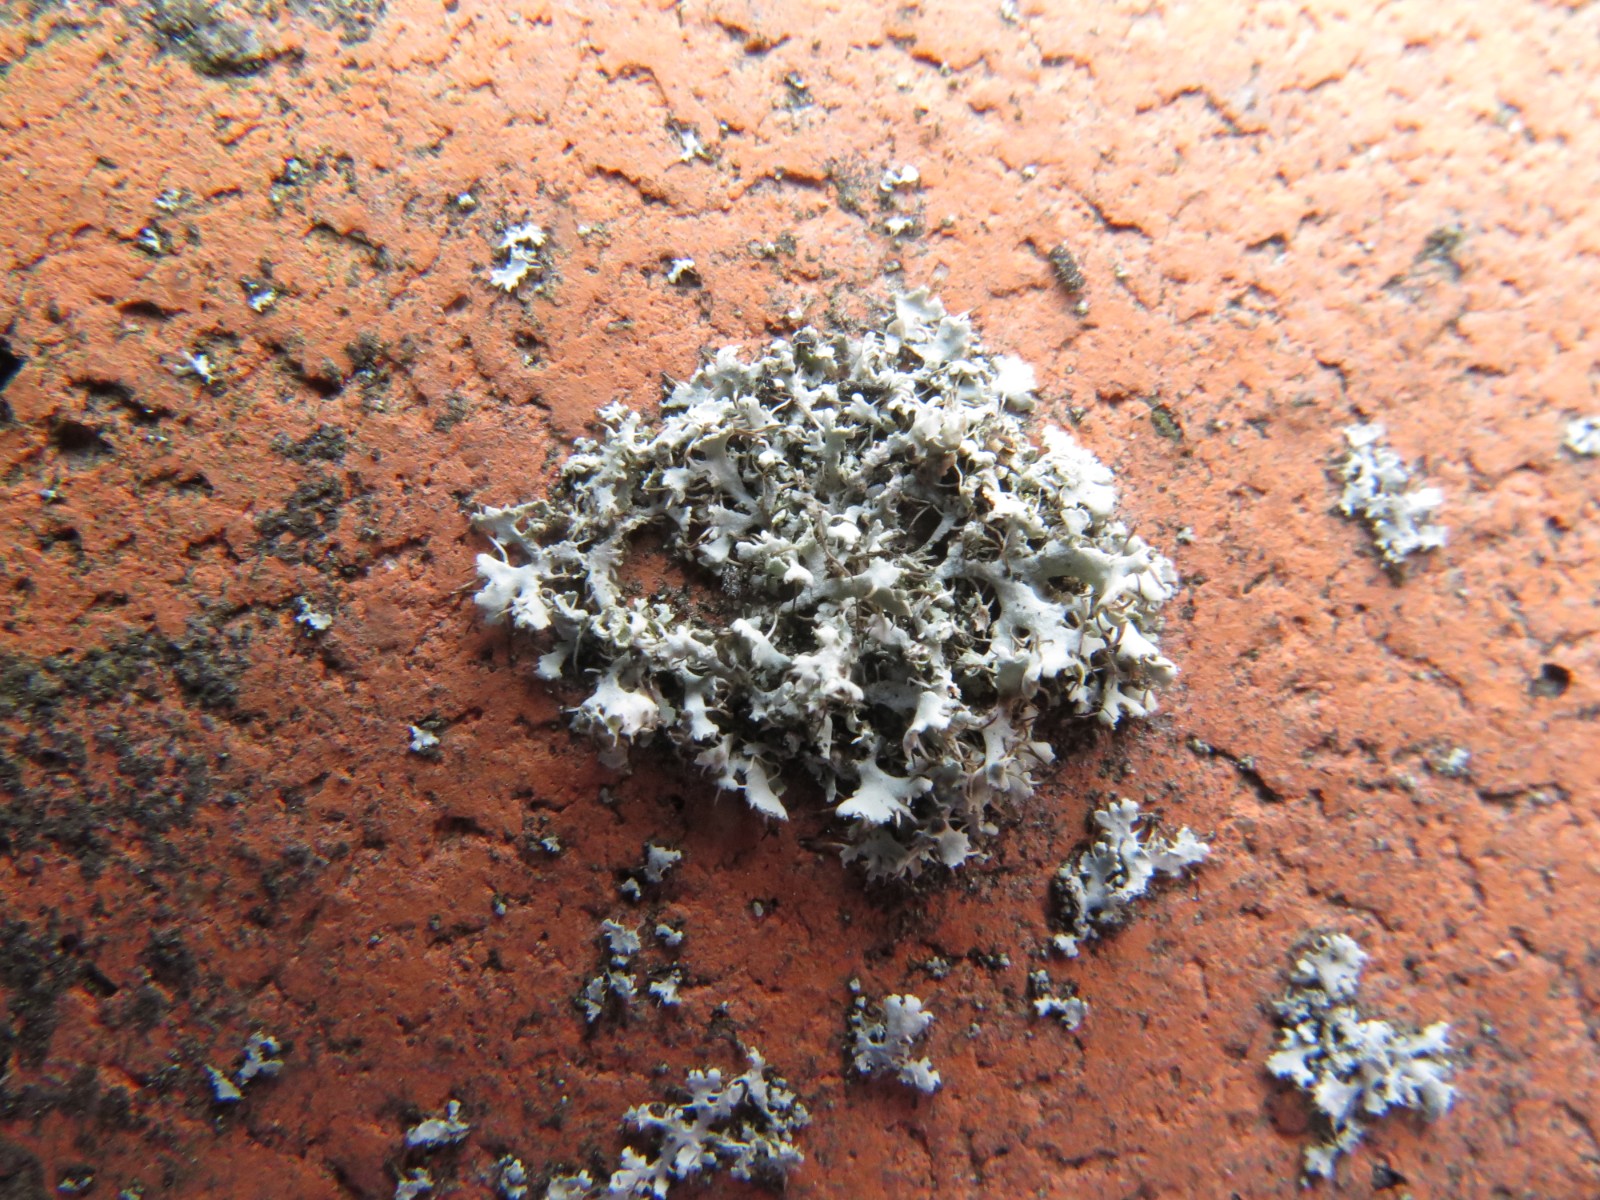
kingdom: Fungi
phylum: Ascomycota
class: Lecanoromycetes
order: Caliciales
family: Physciaceae
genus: Physcia
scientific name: Physcia tenella
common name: spæd rosetlav
